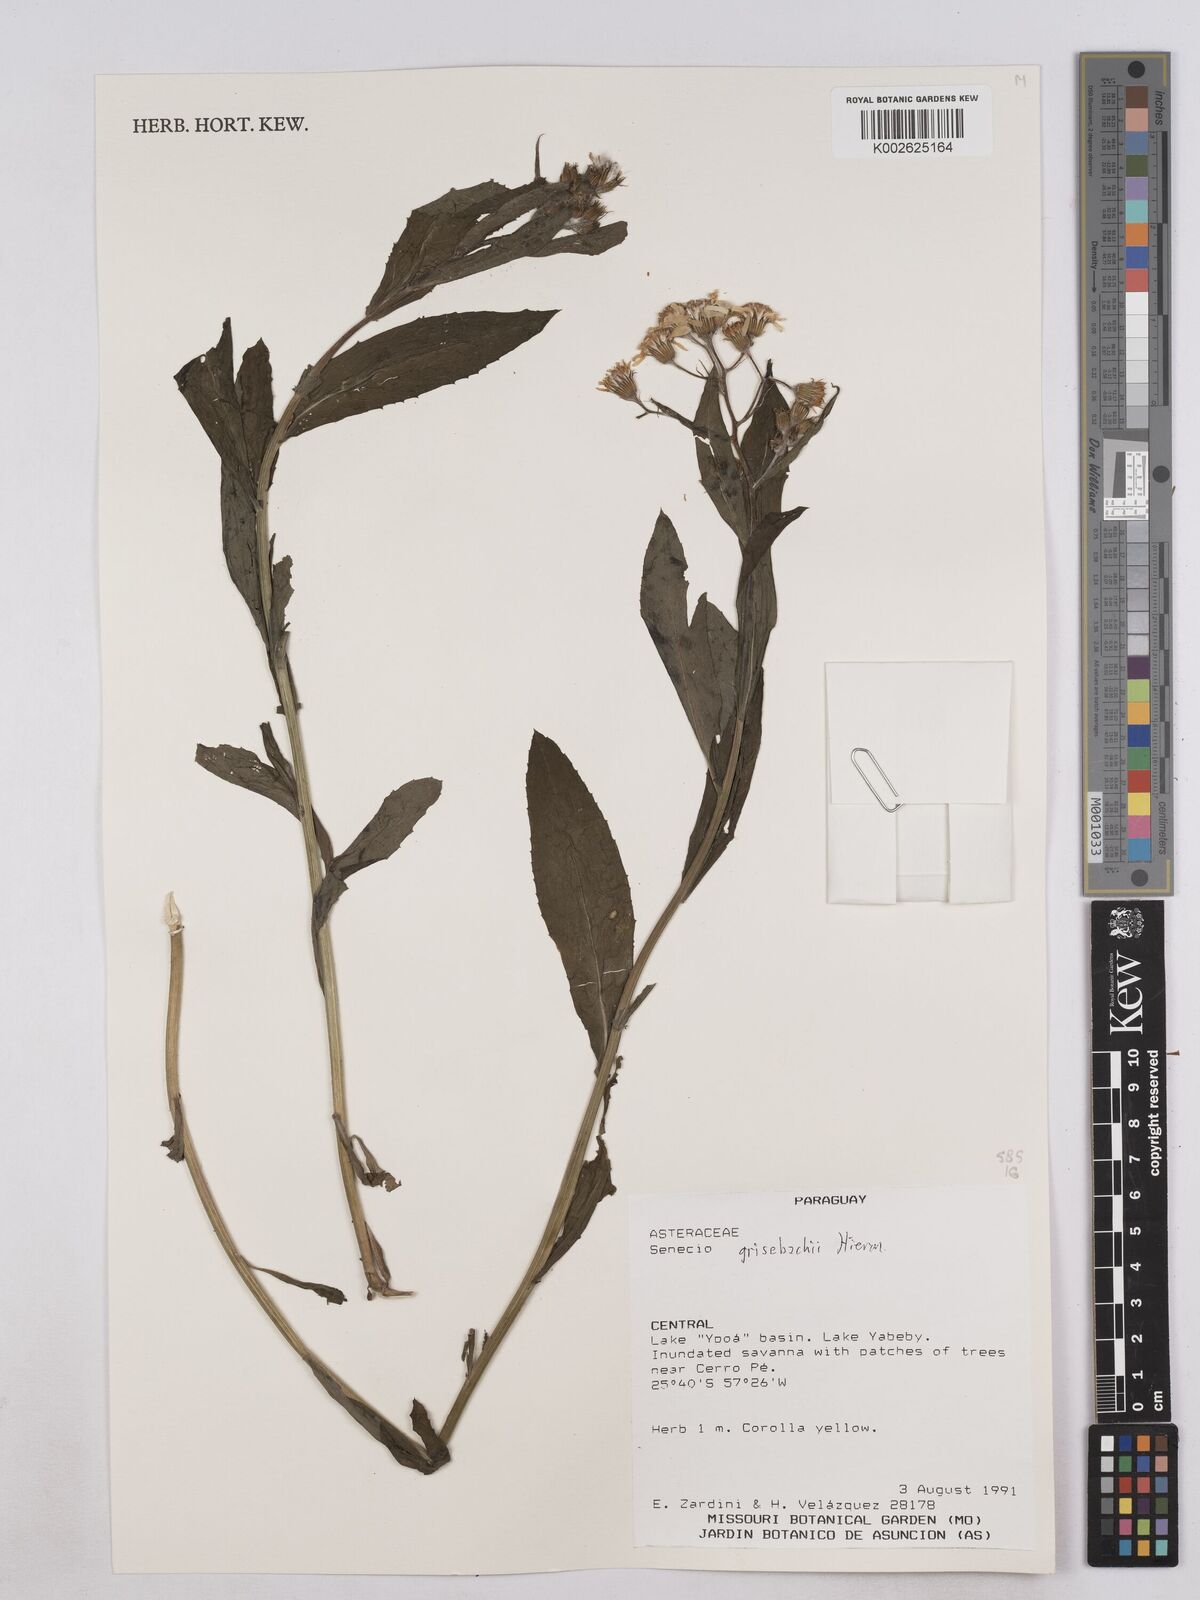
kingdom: Plantae
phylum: Tracheophyta
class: Magnoliopsida
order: Asterales
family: Asteraceae
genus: Senecio
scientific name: Senecio grisebachii
